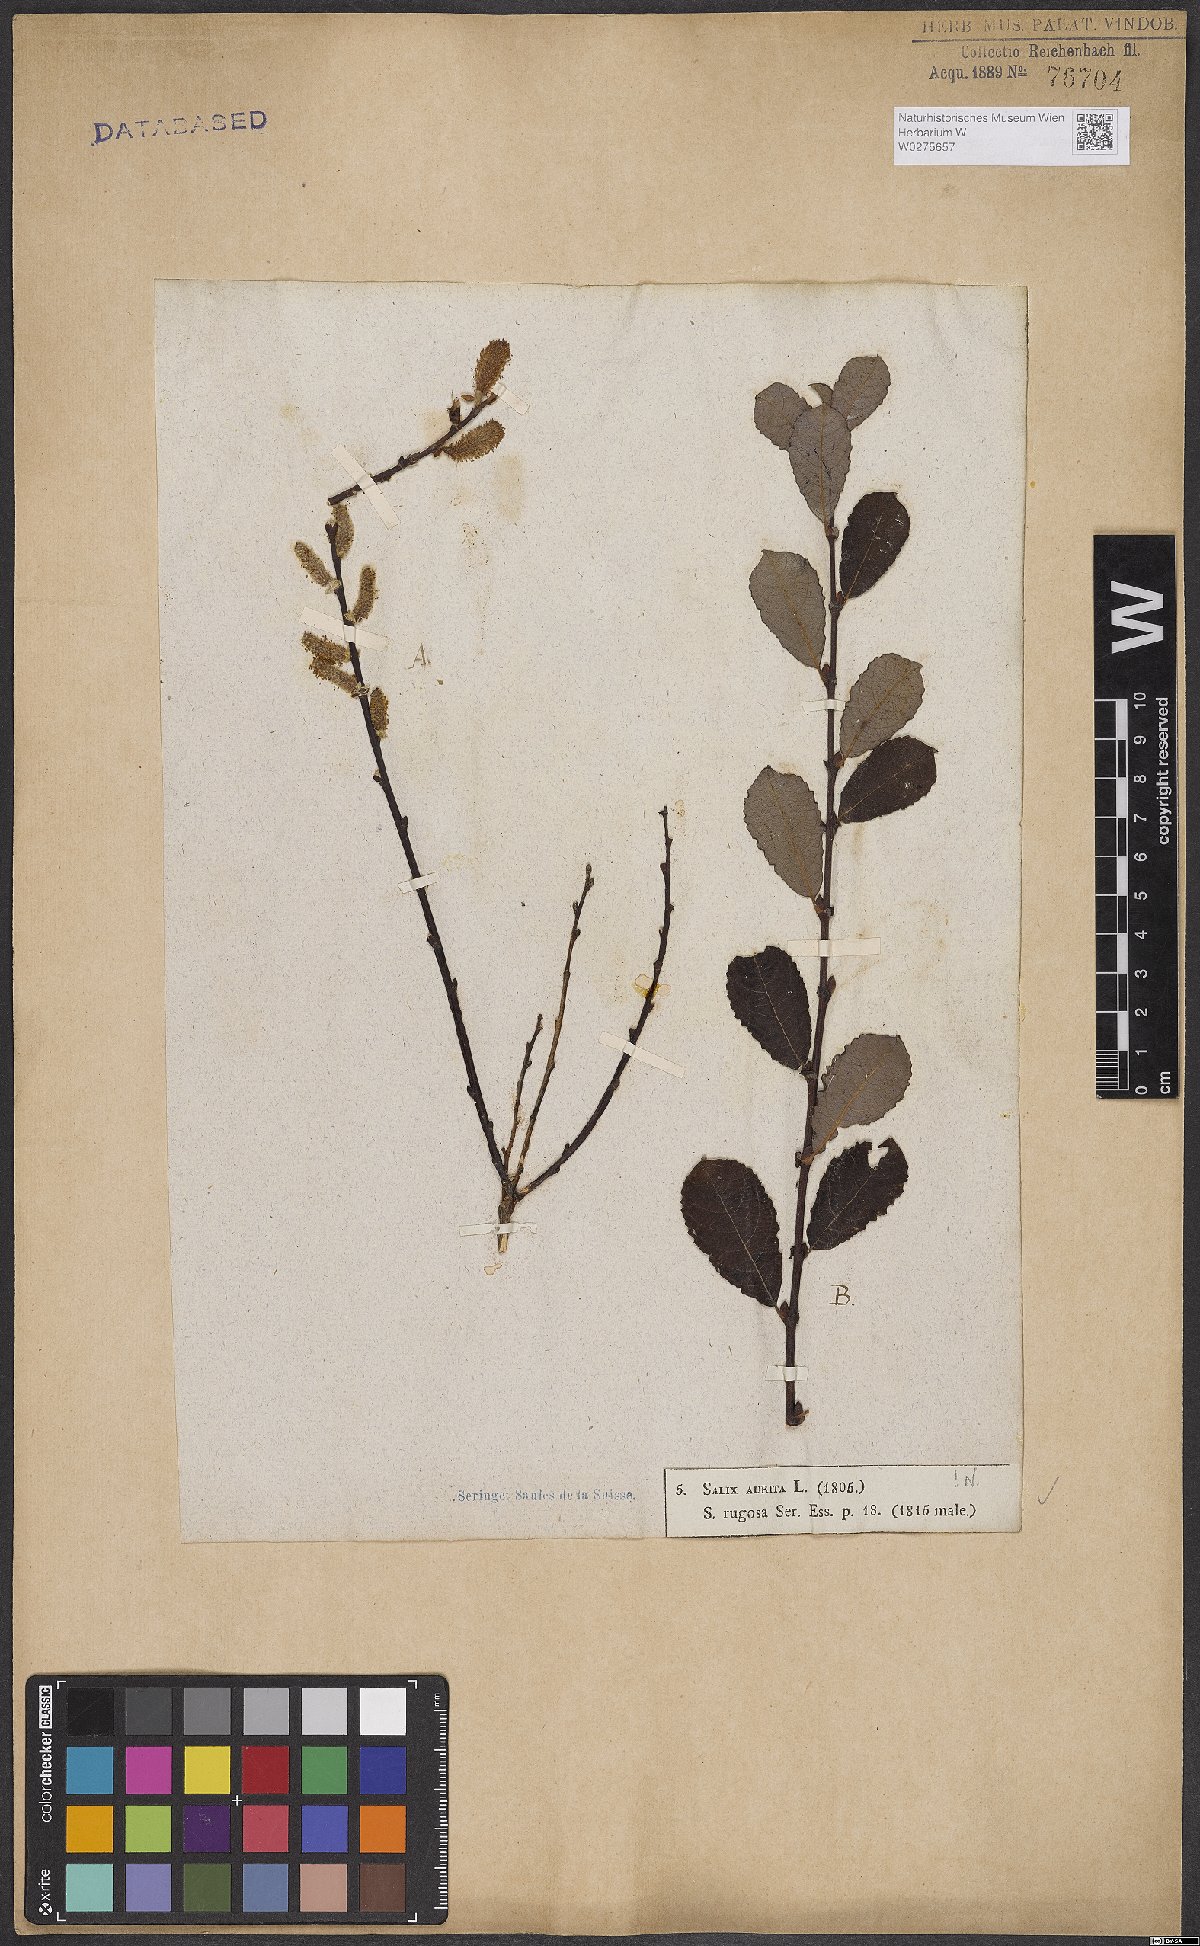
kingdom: Plantae
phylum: Tracheophyta
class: Magnoliopsida
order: Malpighiales
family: Salicaceae
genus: Salix
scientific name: Salix aurita
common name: Eared willow
